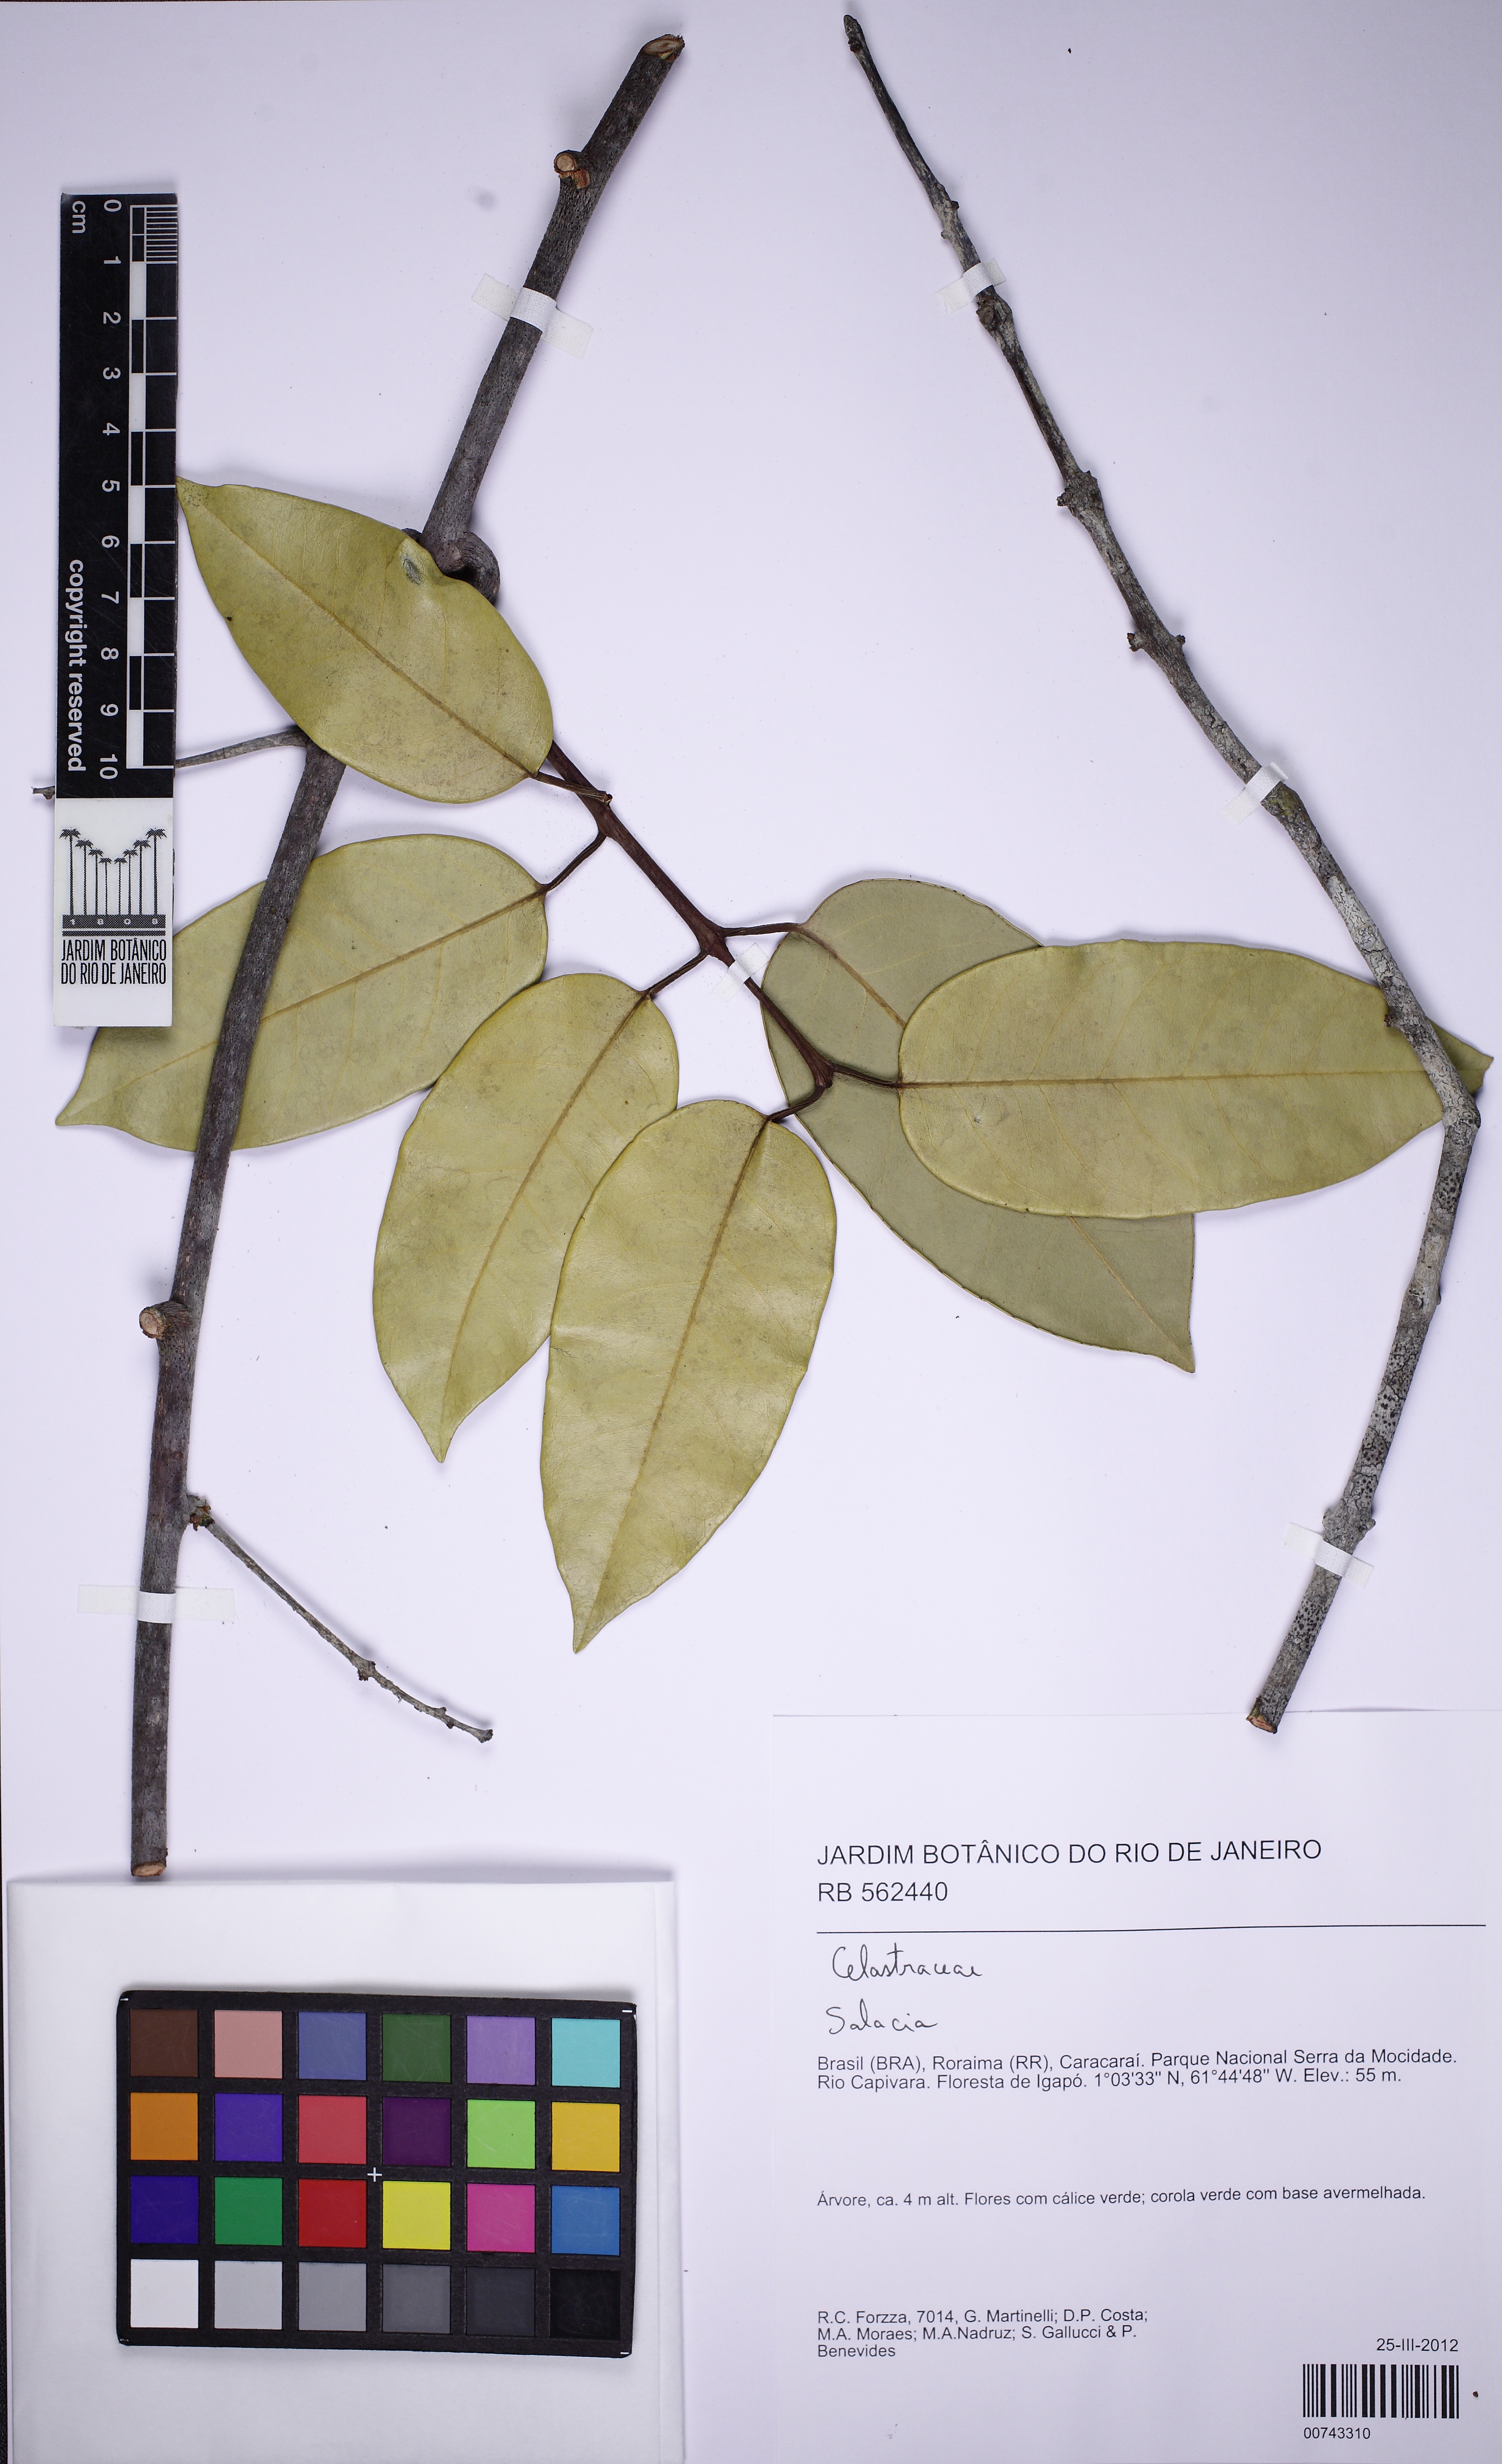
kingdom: Plantae
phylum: Tracheophyta
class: Magnoliopsida
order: Celastrales
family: Celastraceae
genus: Salacia
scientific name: Salacia
